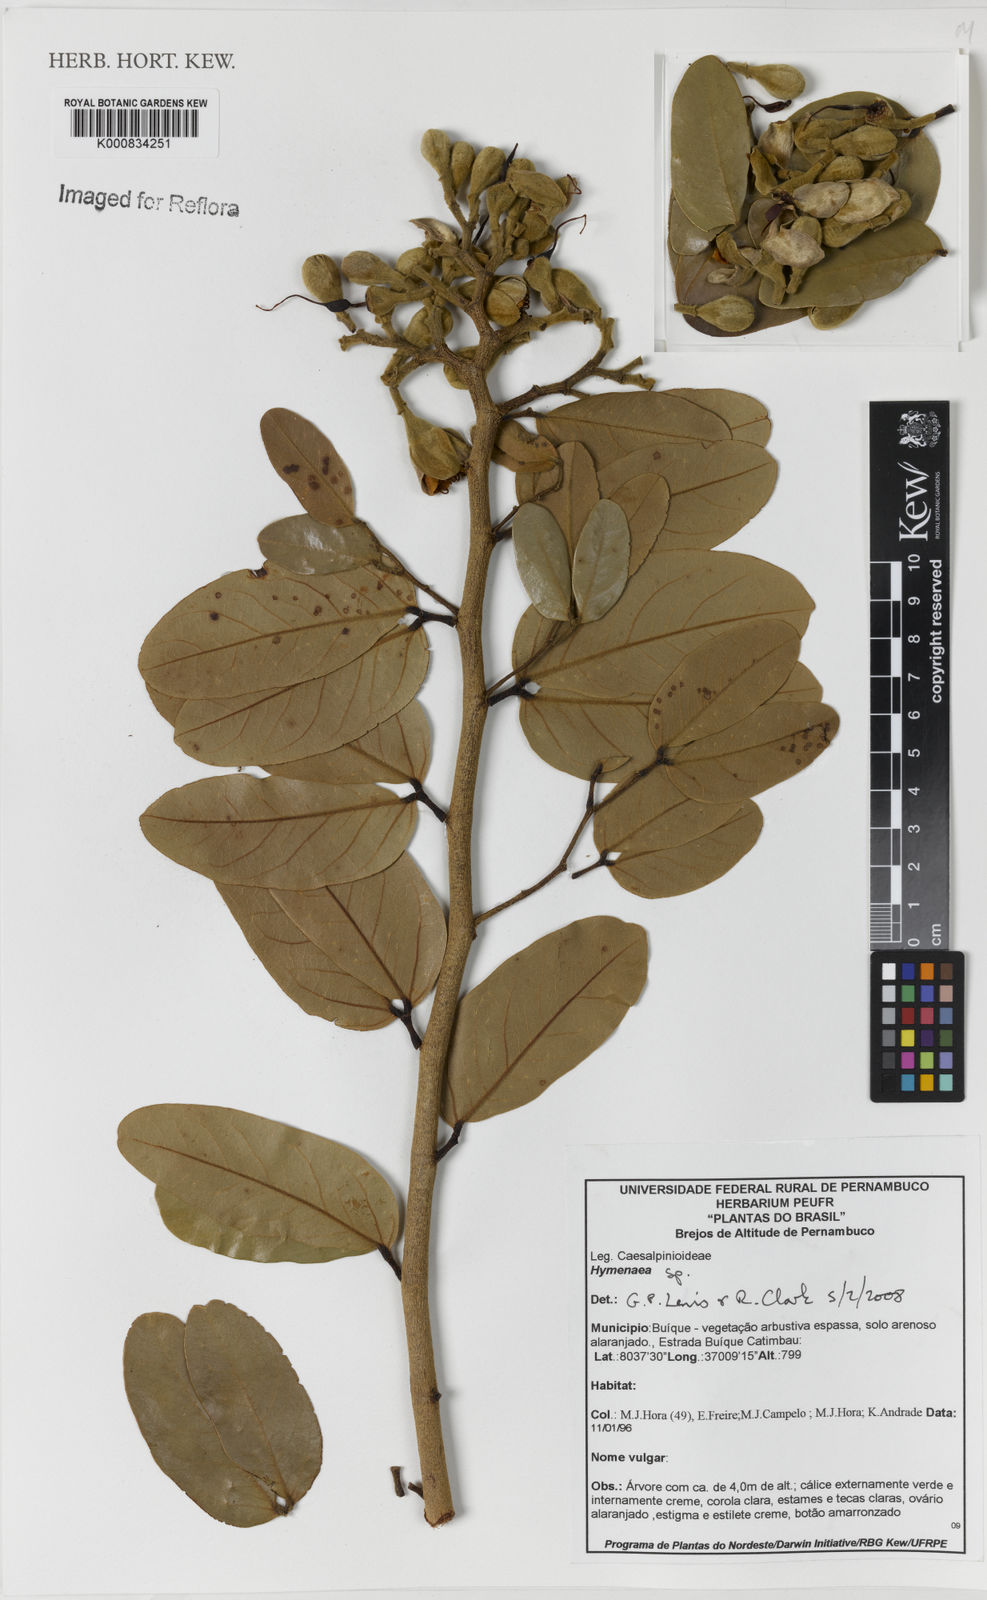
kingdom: Plantae
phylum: Tracheophyta
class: Magnoliopsida
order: Fabales
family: Fabaceae
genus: Hymenaea
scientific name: Hymenaea
